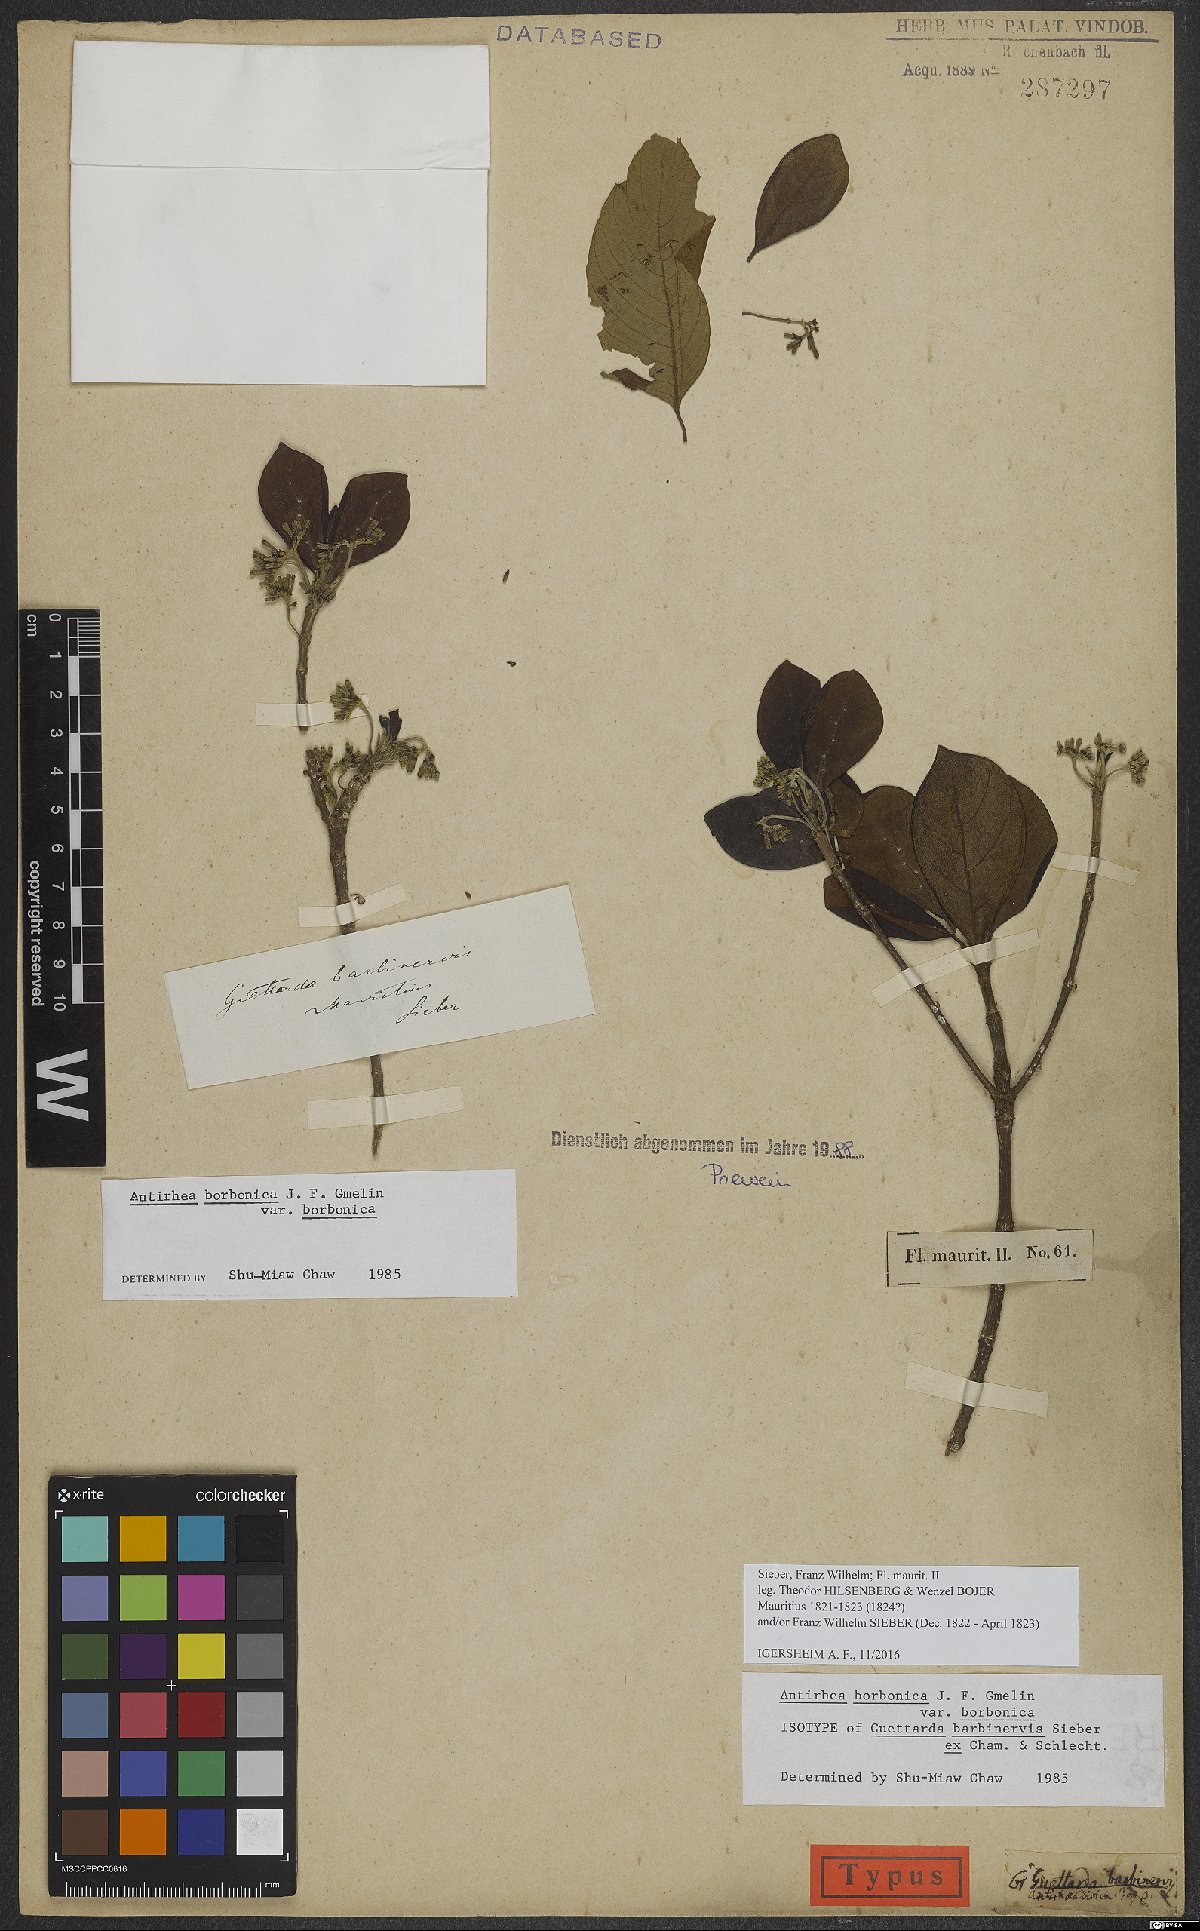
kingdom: Plantae
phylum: Tracheophyta
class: Magnoliopsida
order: Gentianales
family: Rubiaceae
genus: Antirhea
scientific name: Antirhea borbonica
